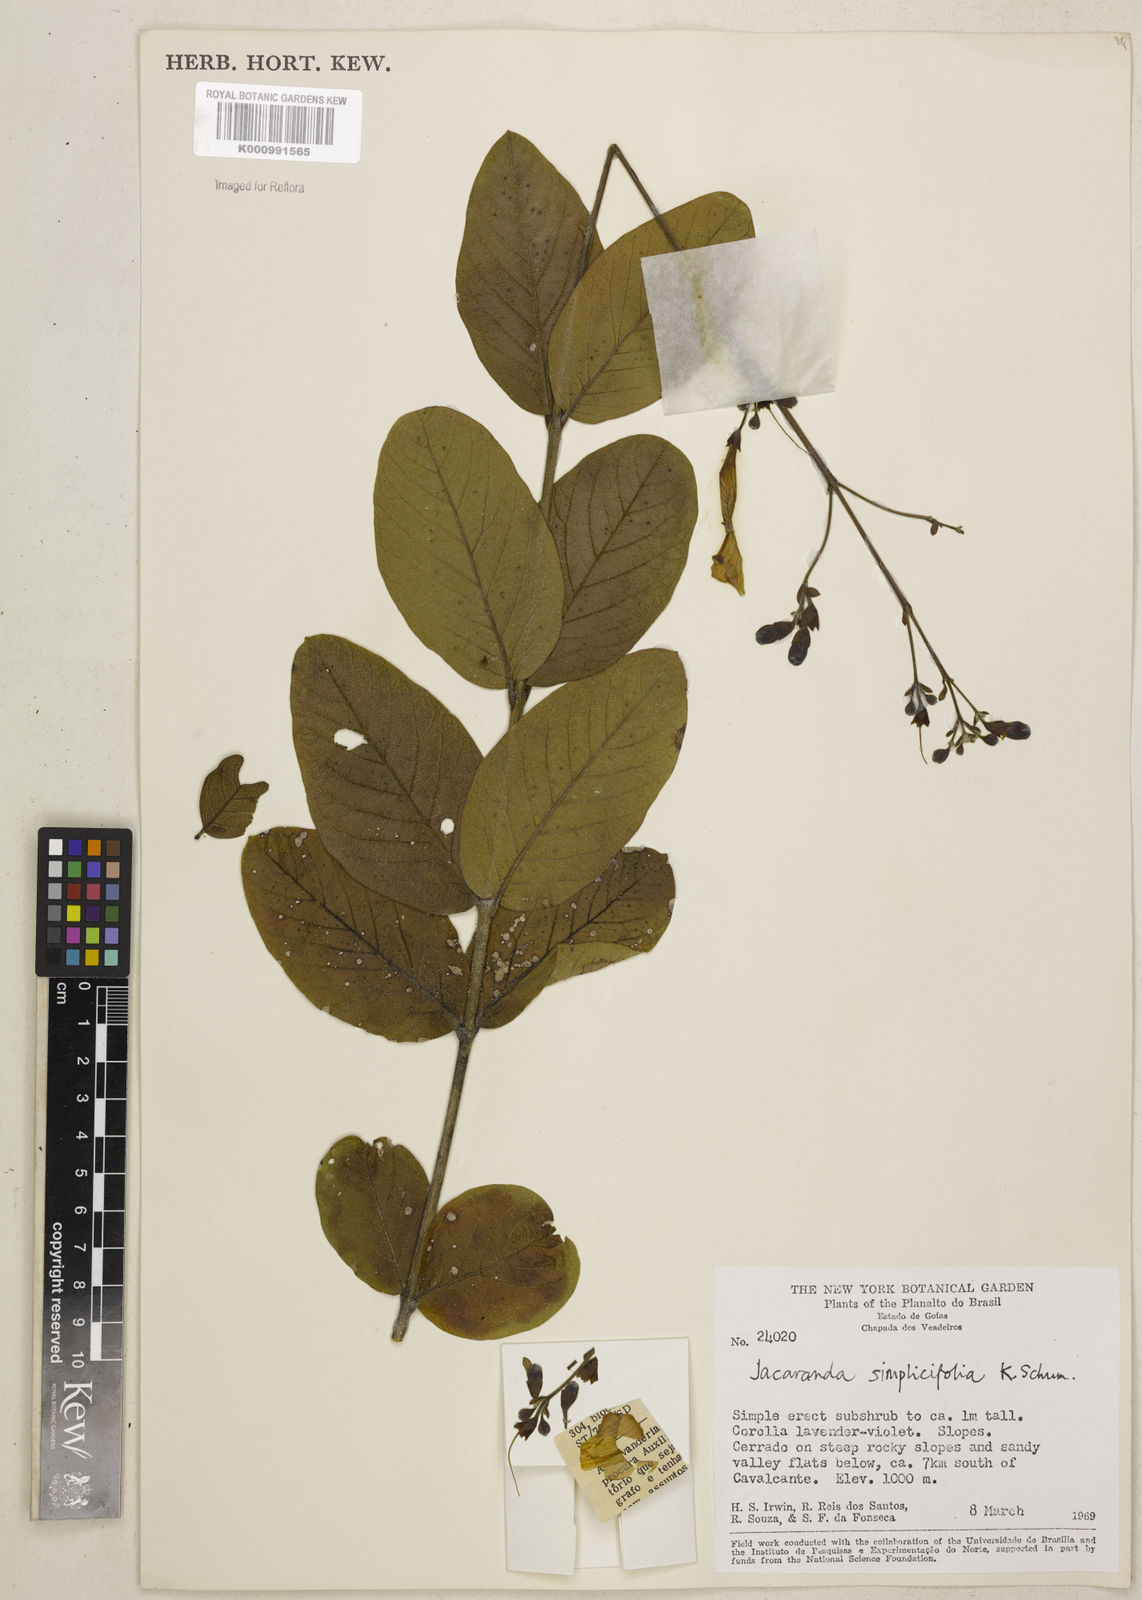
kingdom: Plantae
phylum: Tracheophyta
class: Magnoliopsida
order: Lamiales
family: Bignoniaceae
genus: Jacaranda
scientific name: Jacaranda simplicifolia
